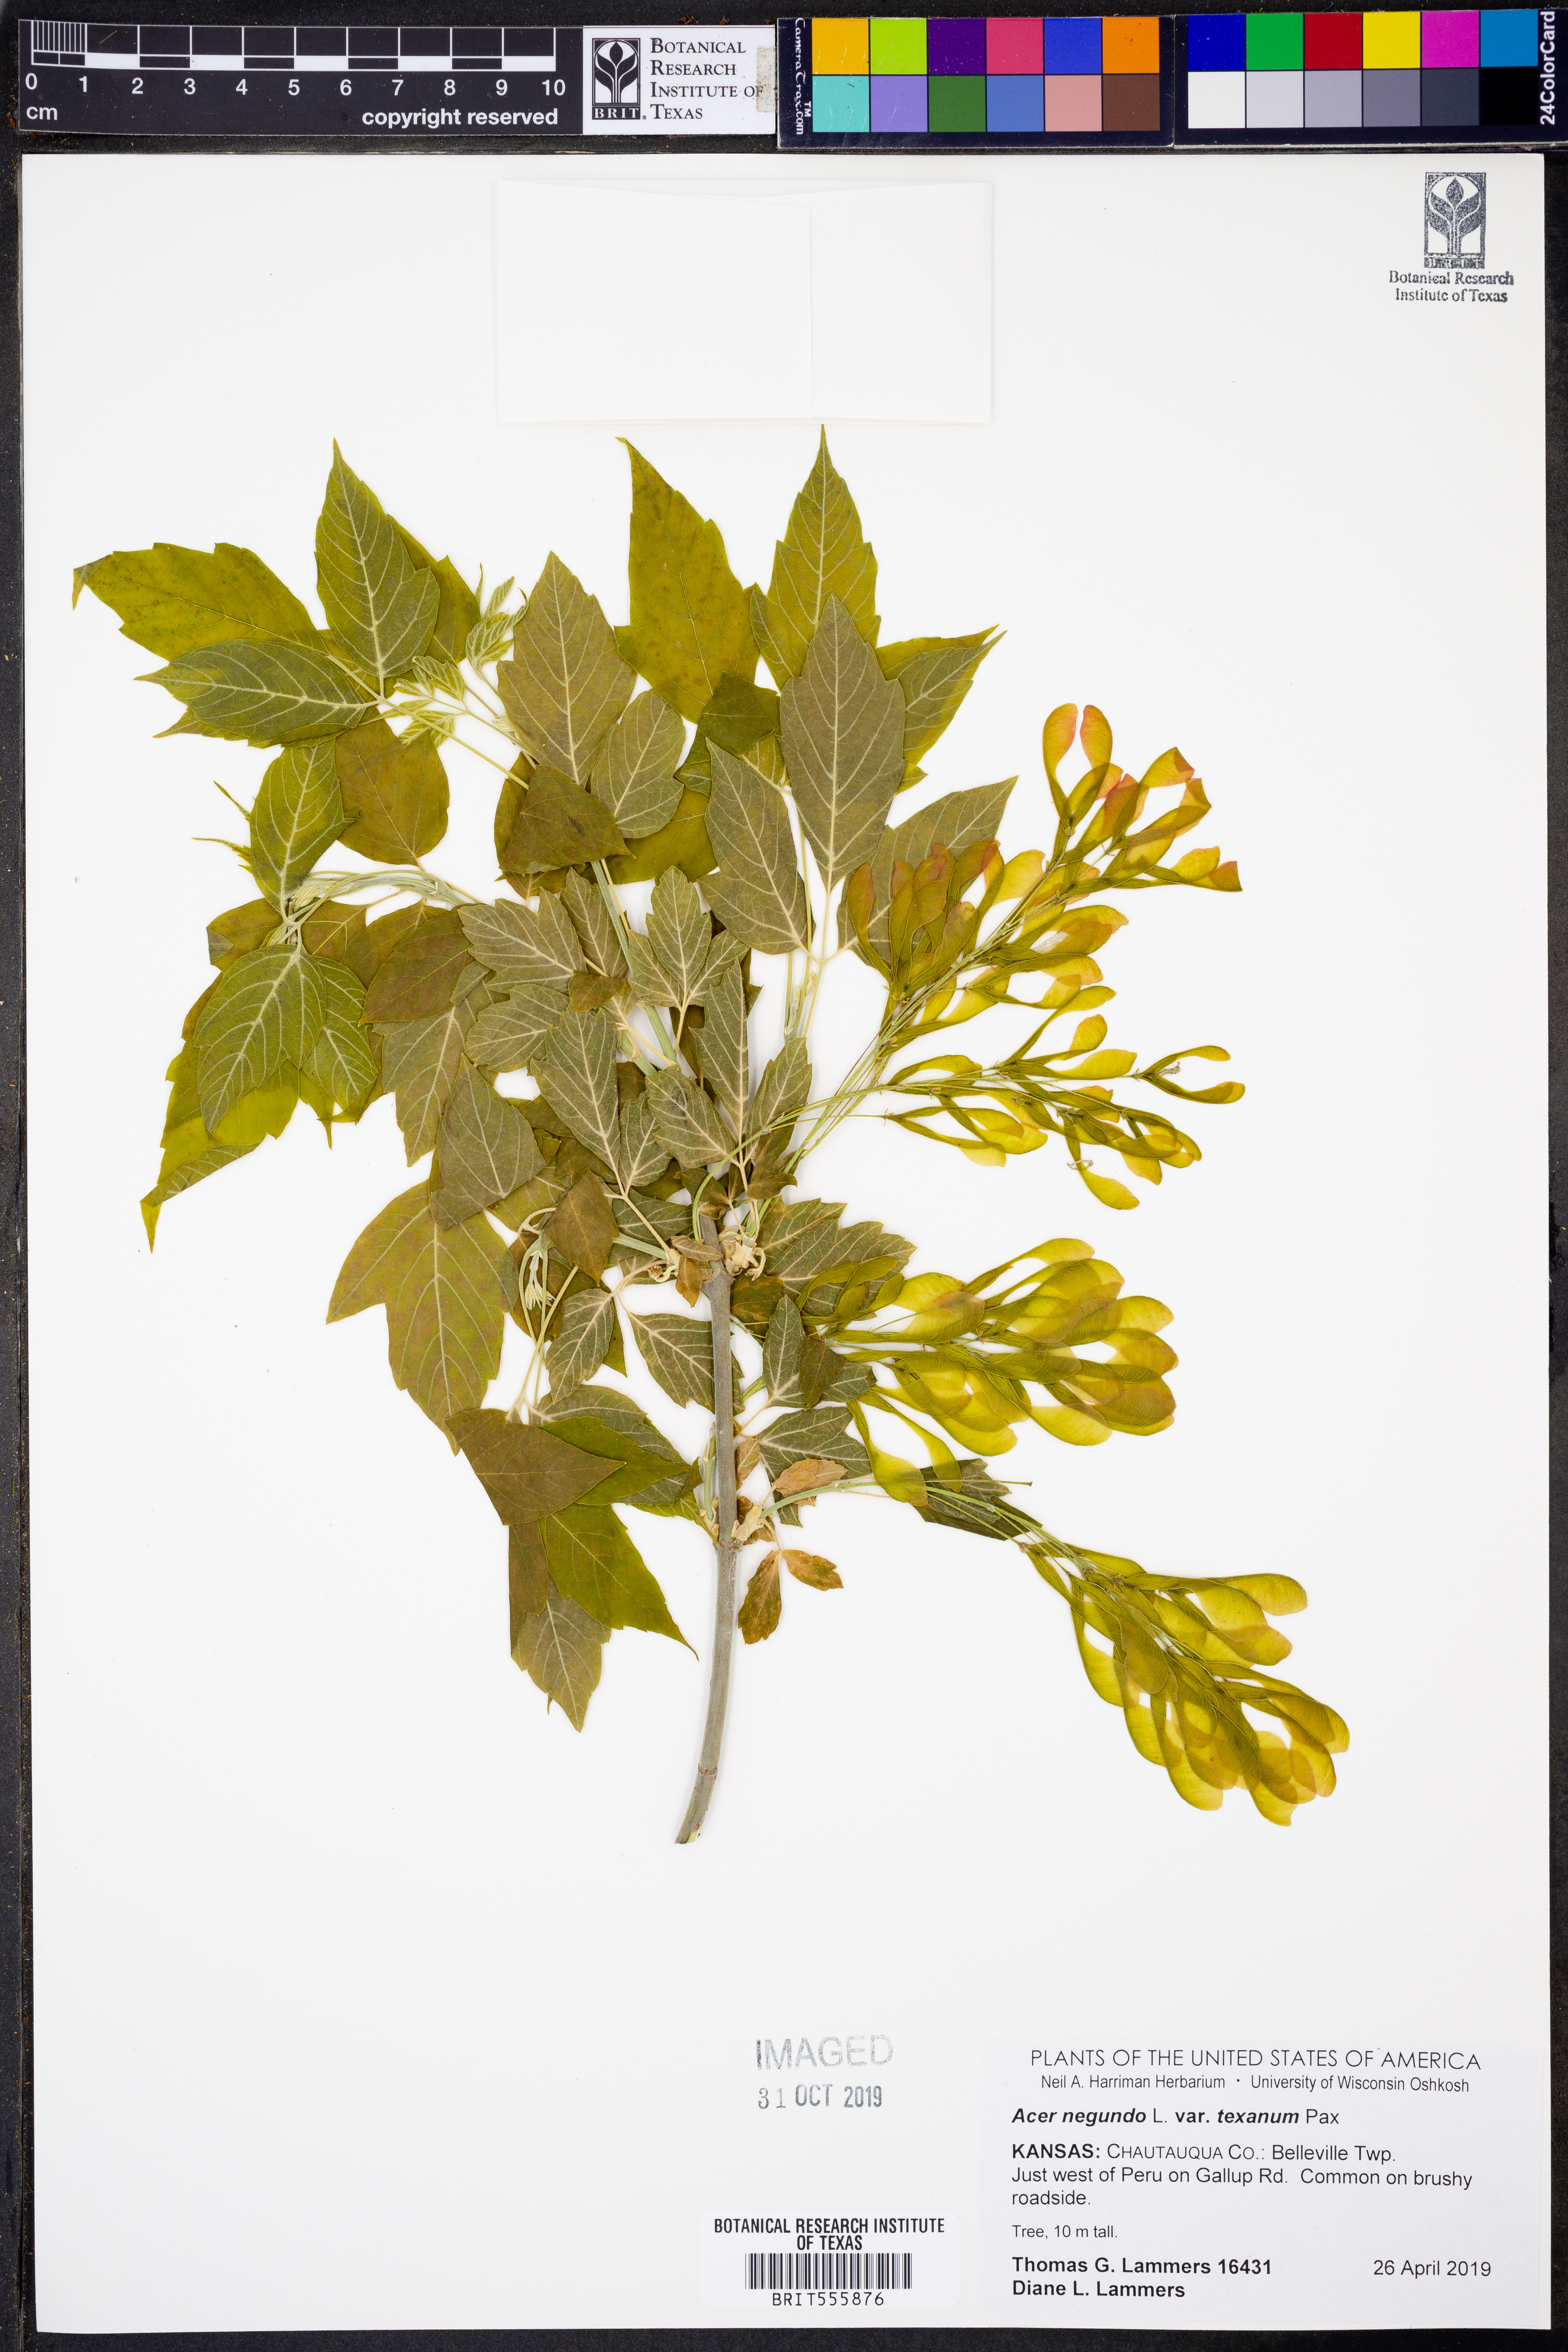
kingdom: Plantae
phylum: Tracheophyta
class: Magnoliopsida
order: Sapindales
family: Sapindaceae
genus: Acer
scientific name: Acer negundo
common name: Ashleaf maple
